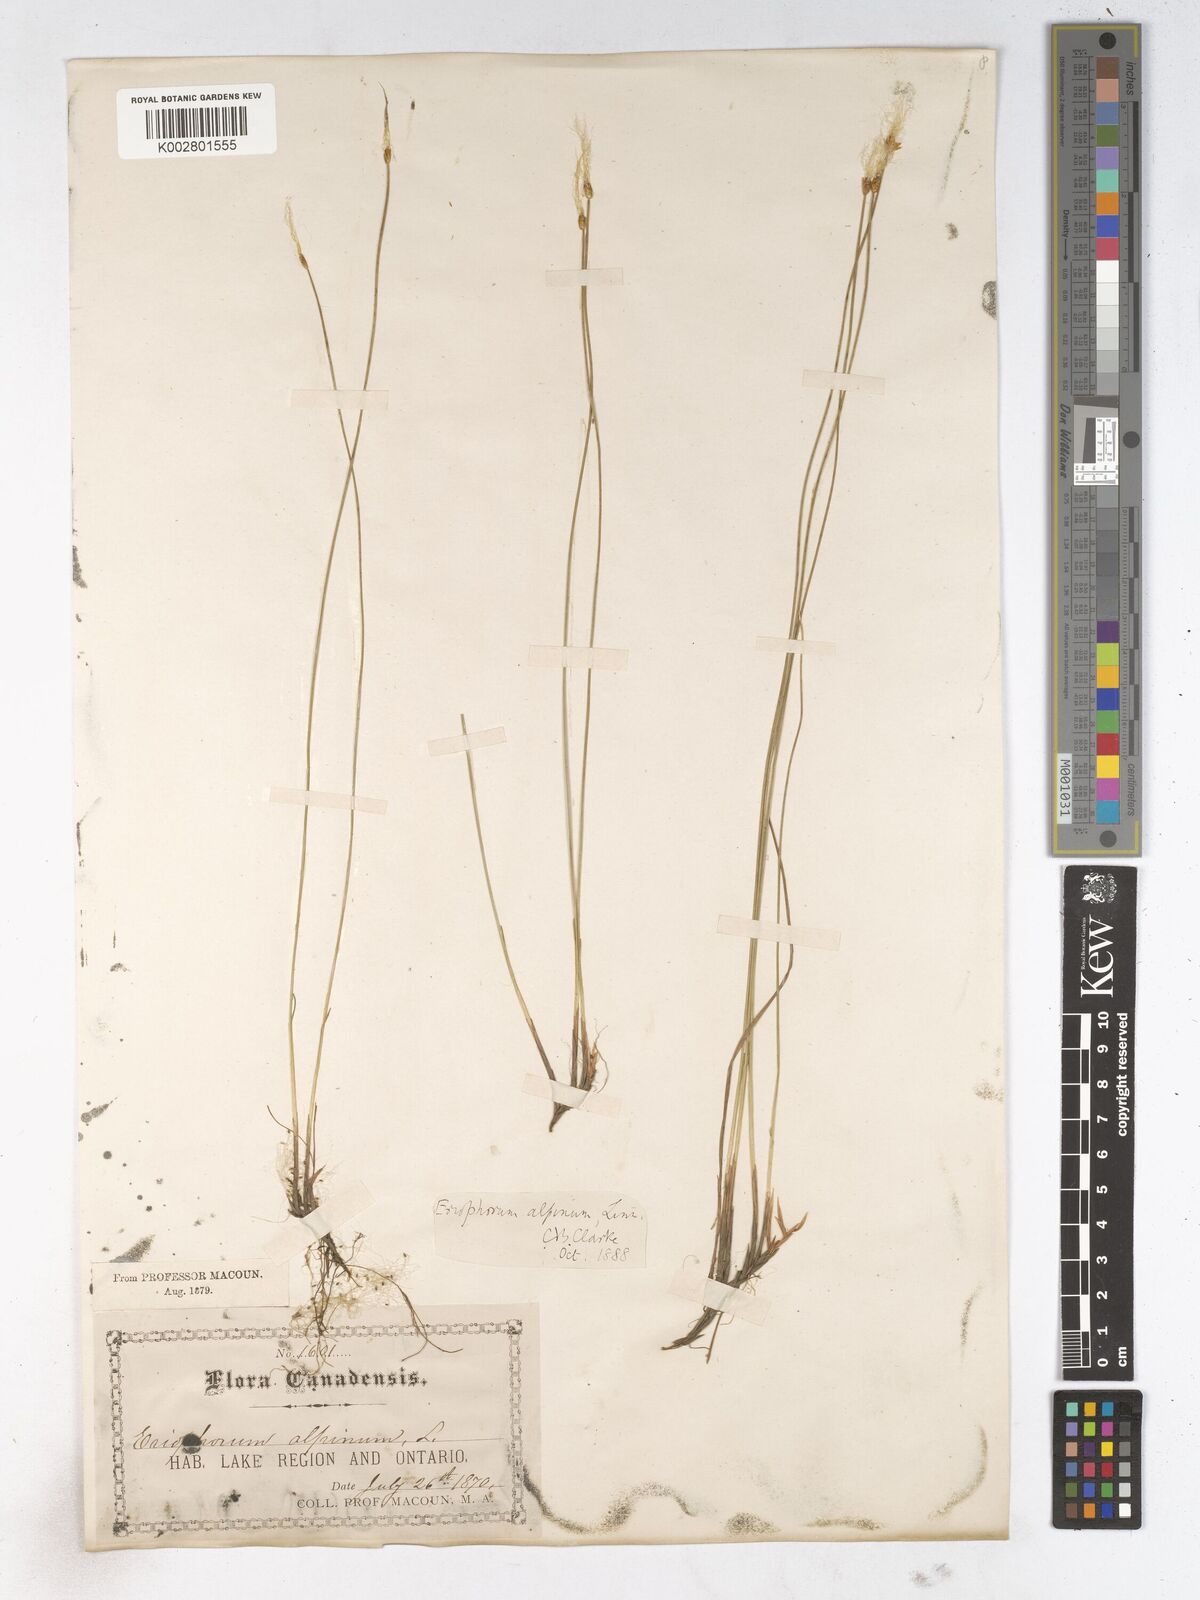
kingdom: Plantae
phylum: Tracheophyta
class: Liliopsida
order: Poales
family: Cyperaceae
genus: Trichophorum
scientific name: Trichophorum alpinum
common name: Alpine bulrush
